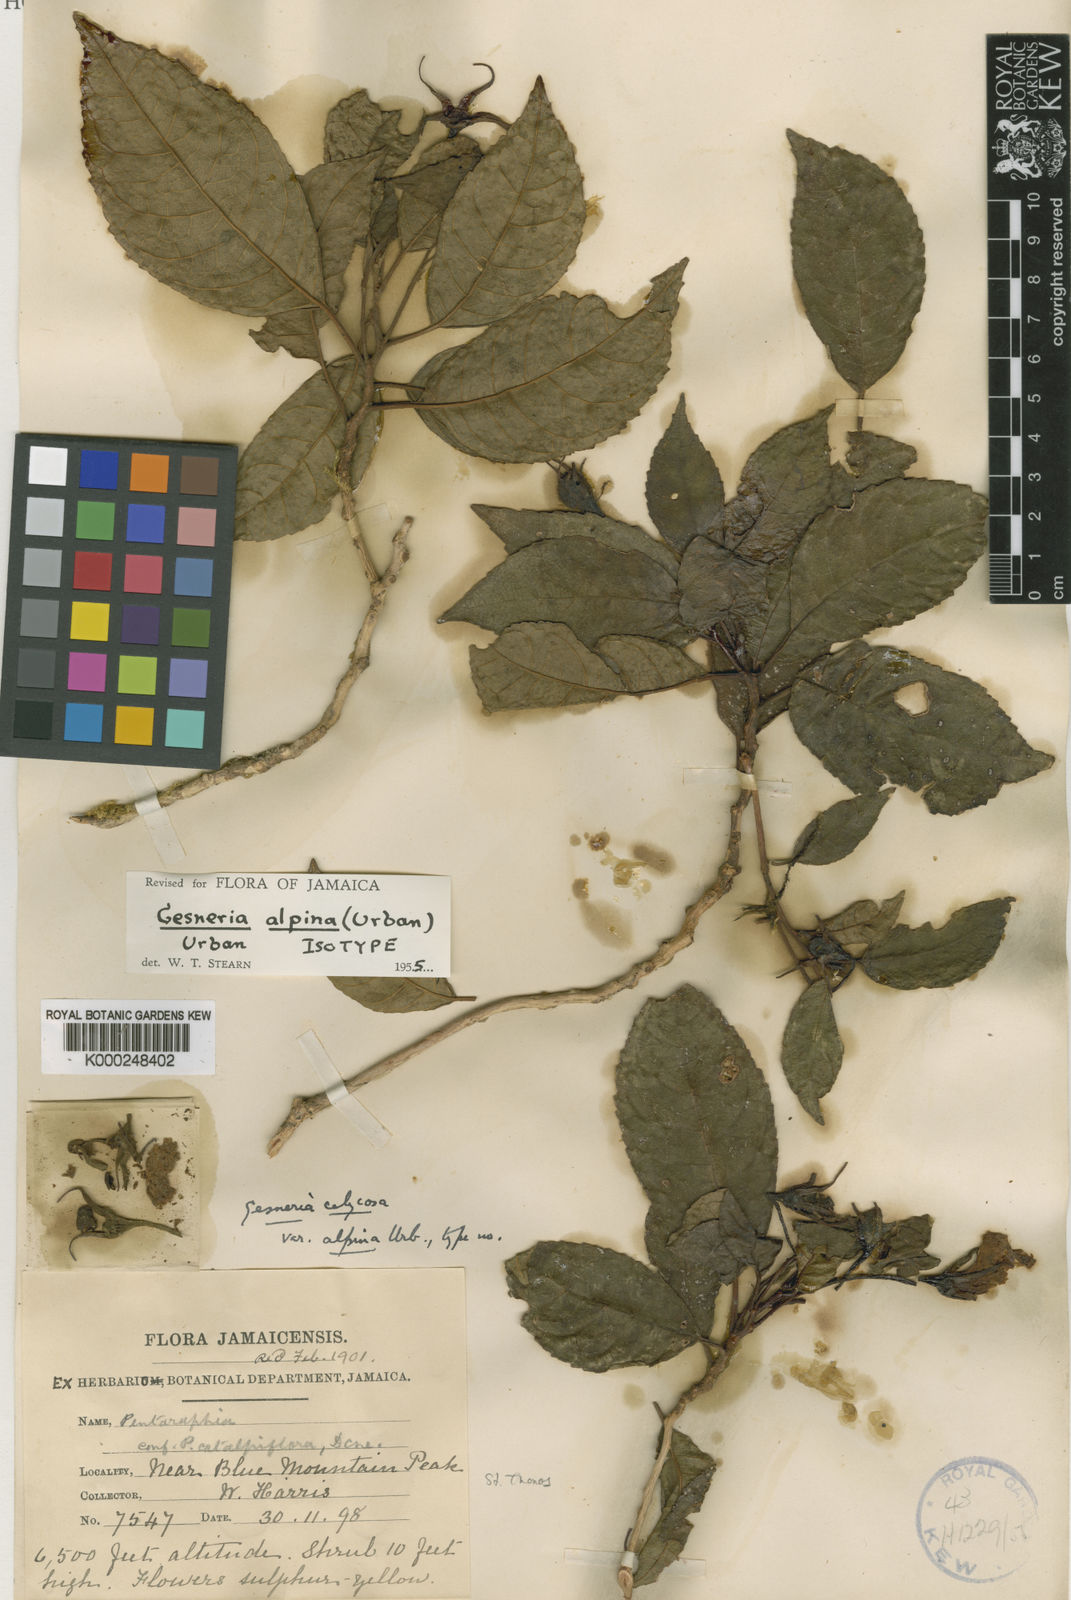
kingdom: Plantae
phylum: Tracheophyta
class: Magnoliopsida
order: Lamiales
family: Gesneriaceae
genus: Gesneria
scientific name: Gesneria alpina
